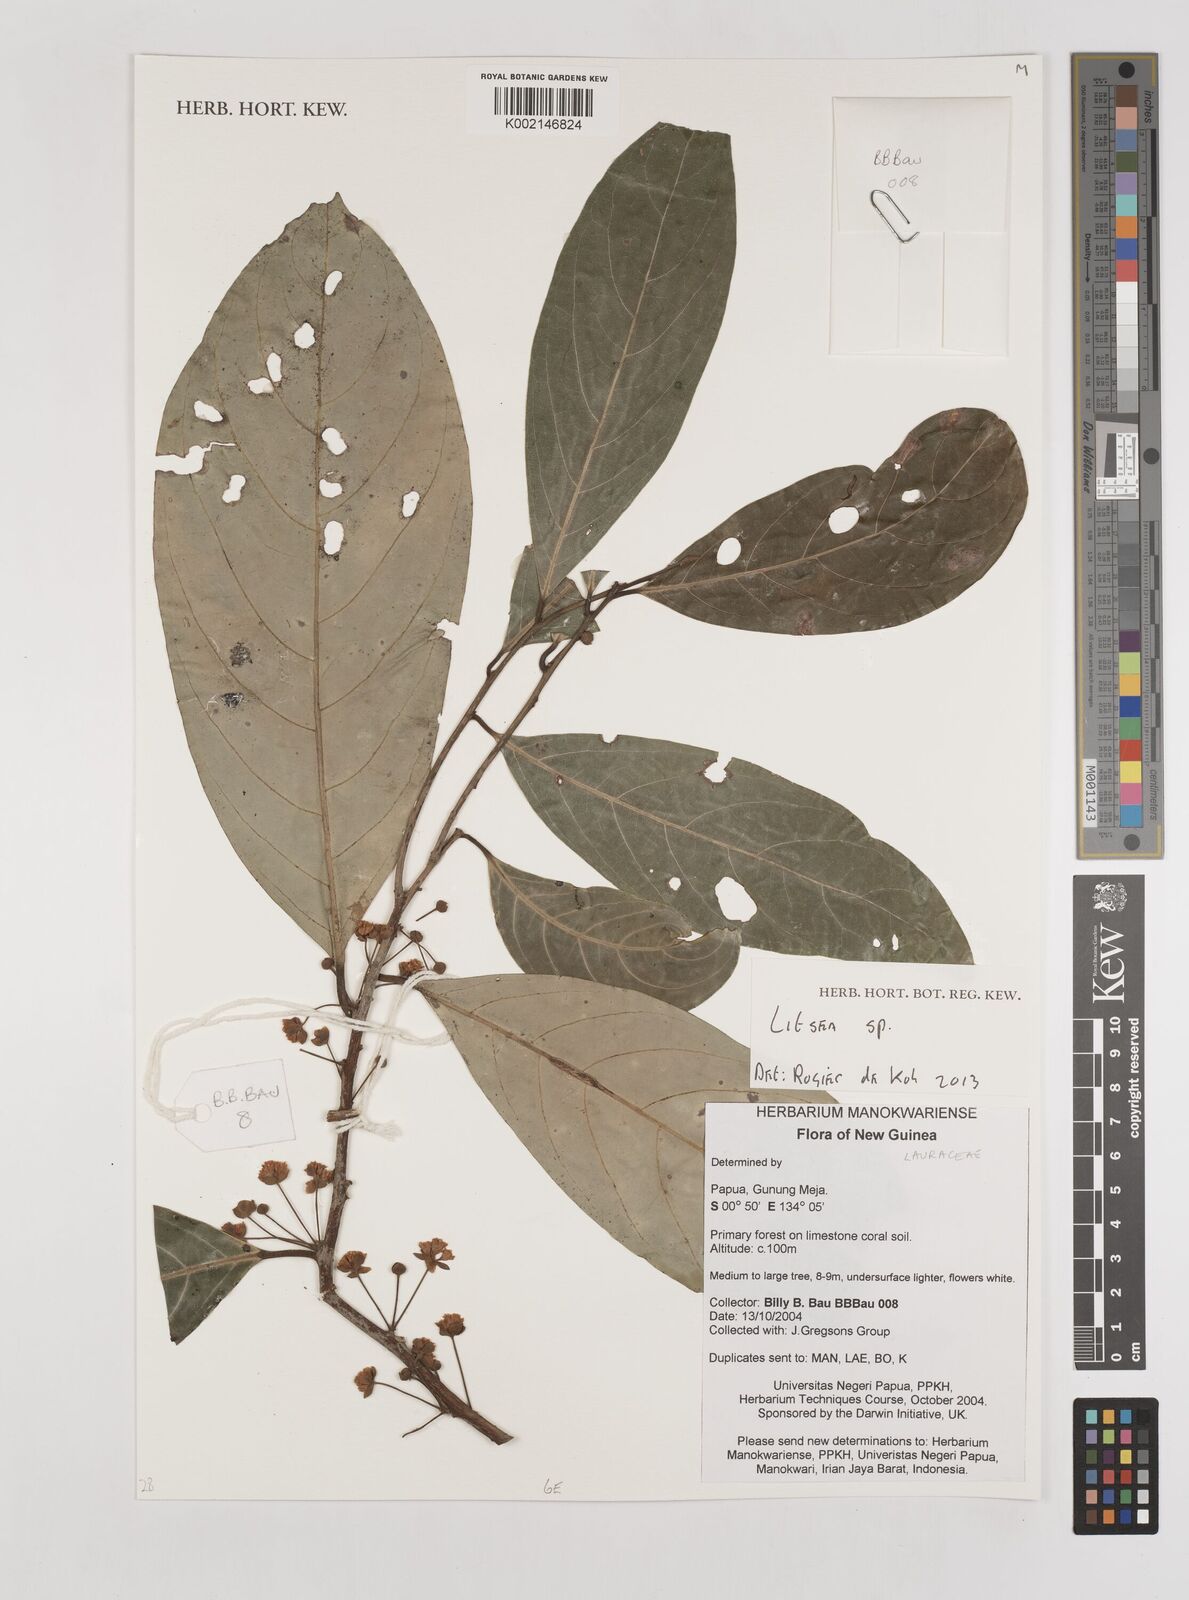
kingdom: Plantae
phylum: Tracheophyta
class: Magnoliopsida
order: Laurales
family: Lauraceae
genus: Litsea
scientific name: Litsea
